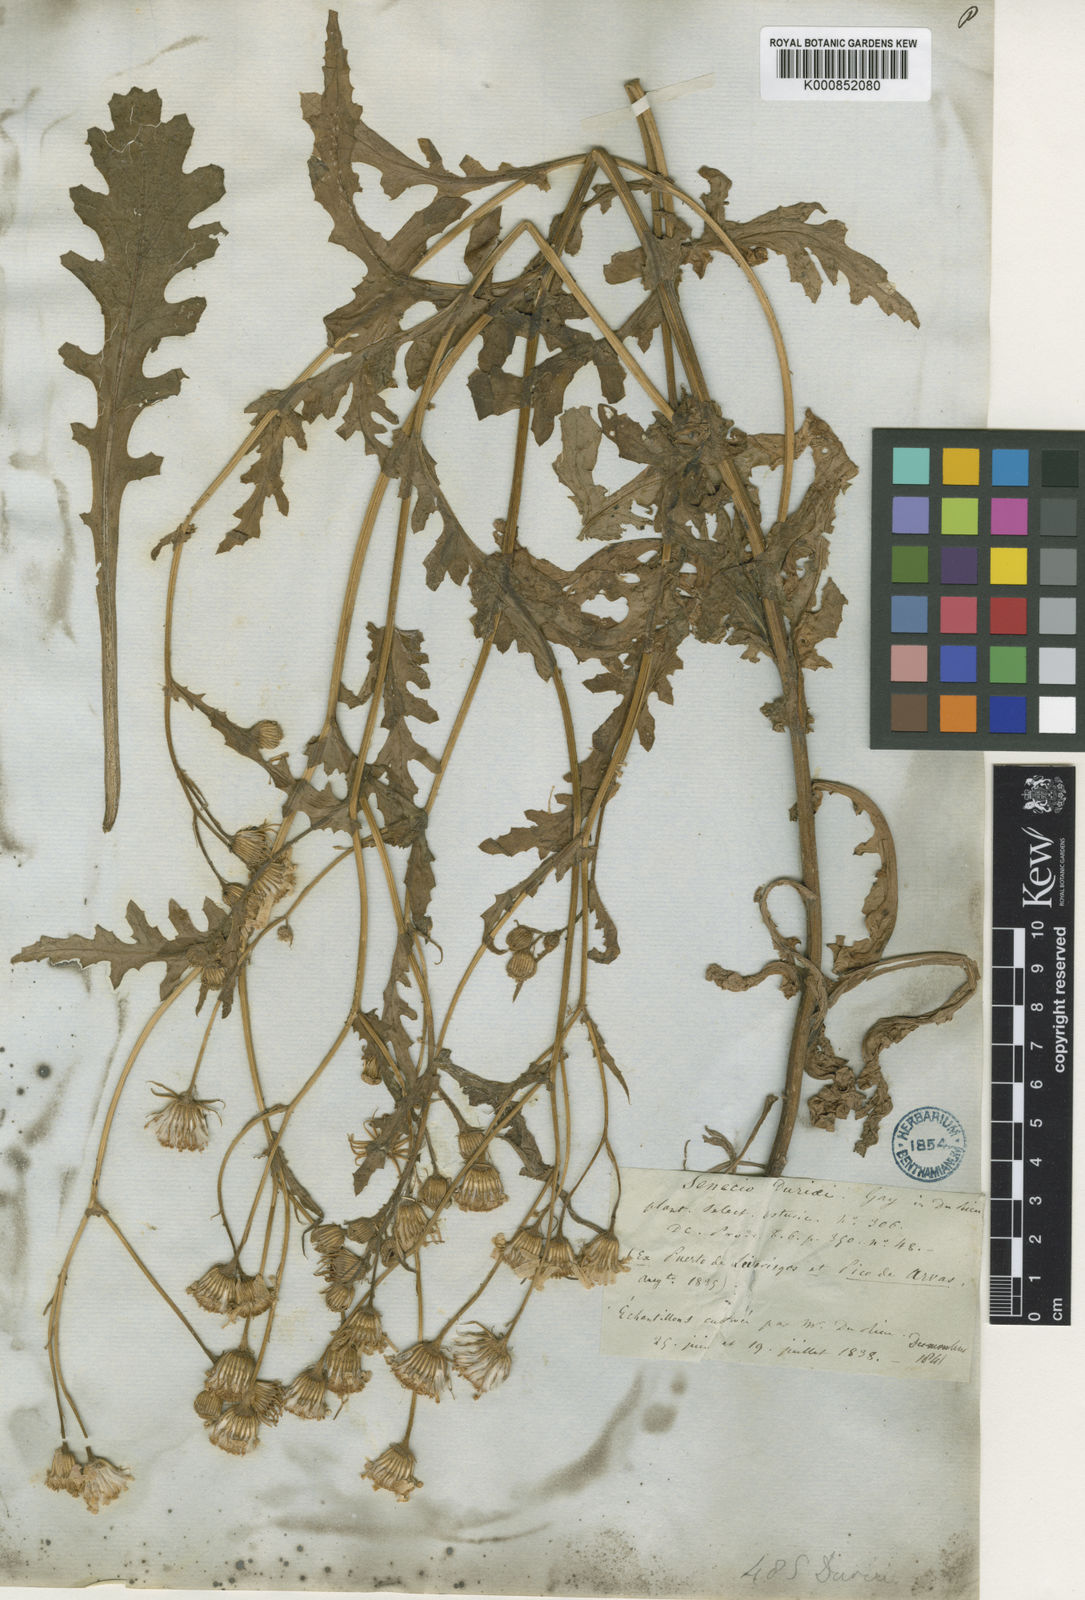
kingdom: Plantae
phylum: Tracheophyta
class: Magnoliopsida
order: Asterales
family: Asteraceae
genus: Senecio
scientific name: Senecio duriaei
